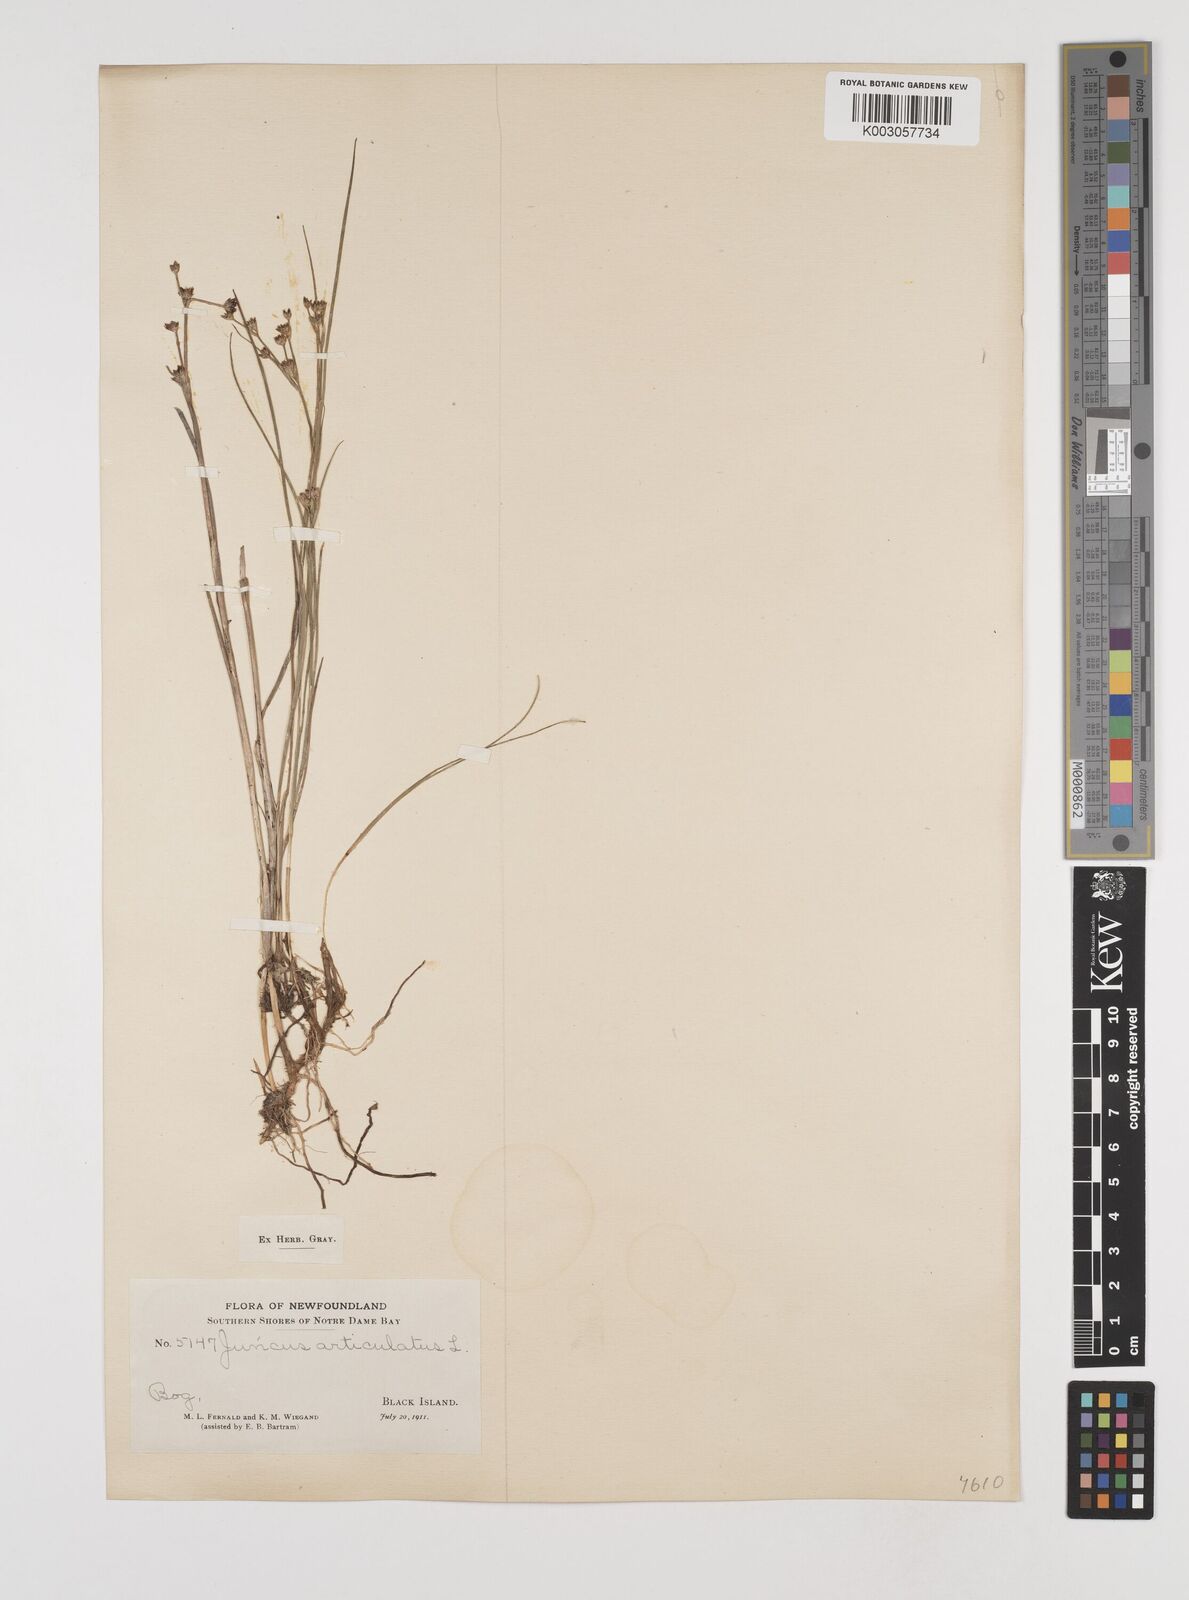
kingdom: Plantae
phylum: Tracheophyta
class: Liliopsida
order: Poales
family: Juncaceae
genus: Juncus
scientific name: Juncus articulatus
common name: Jointed rush
